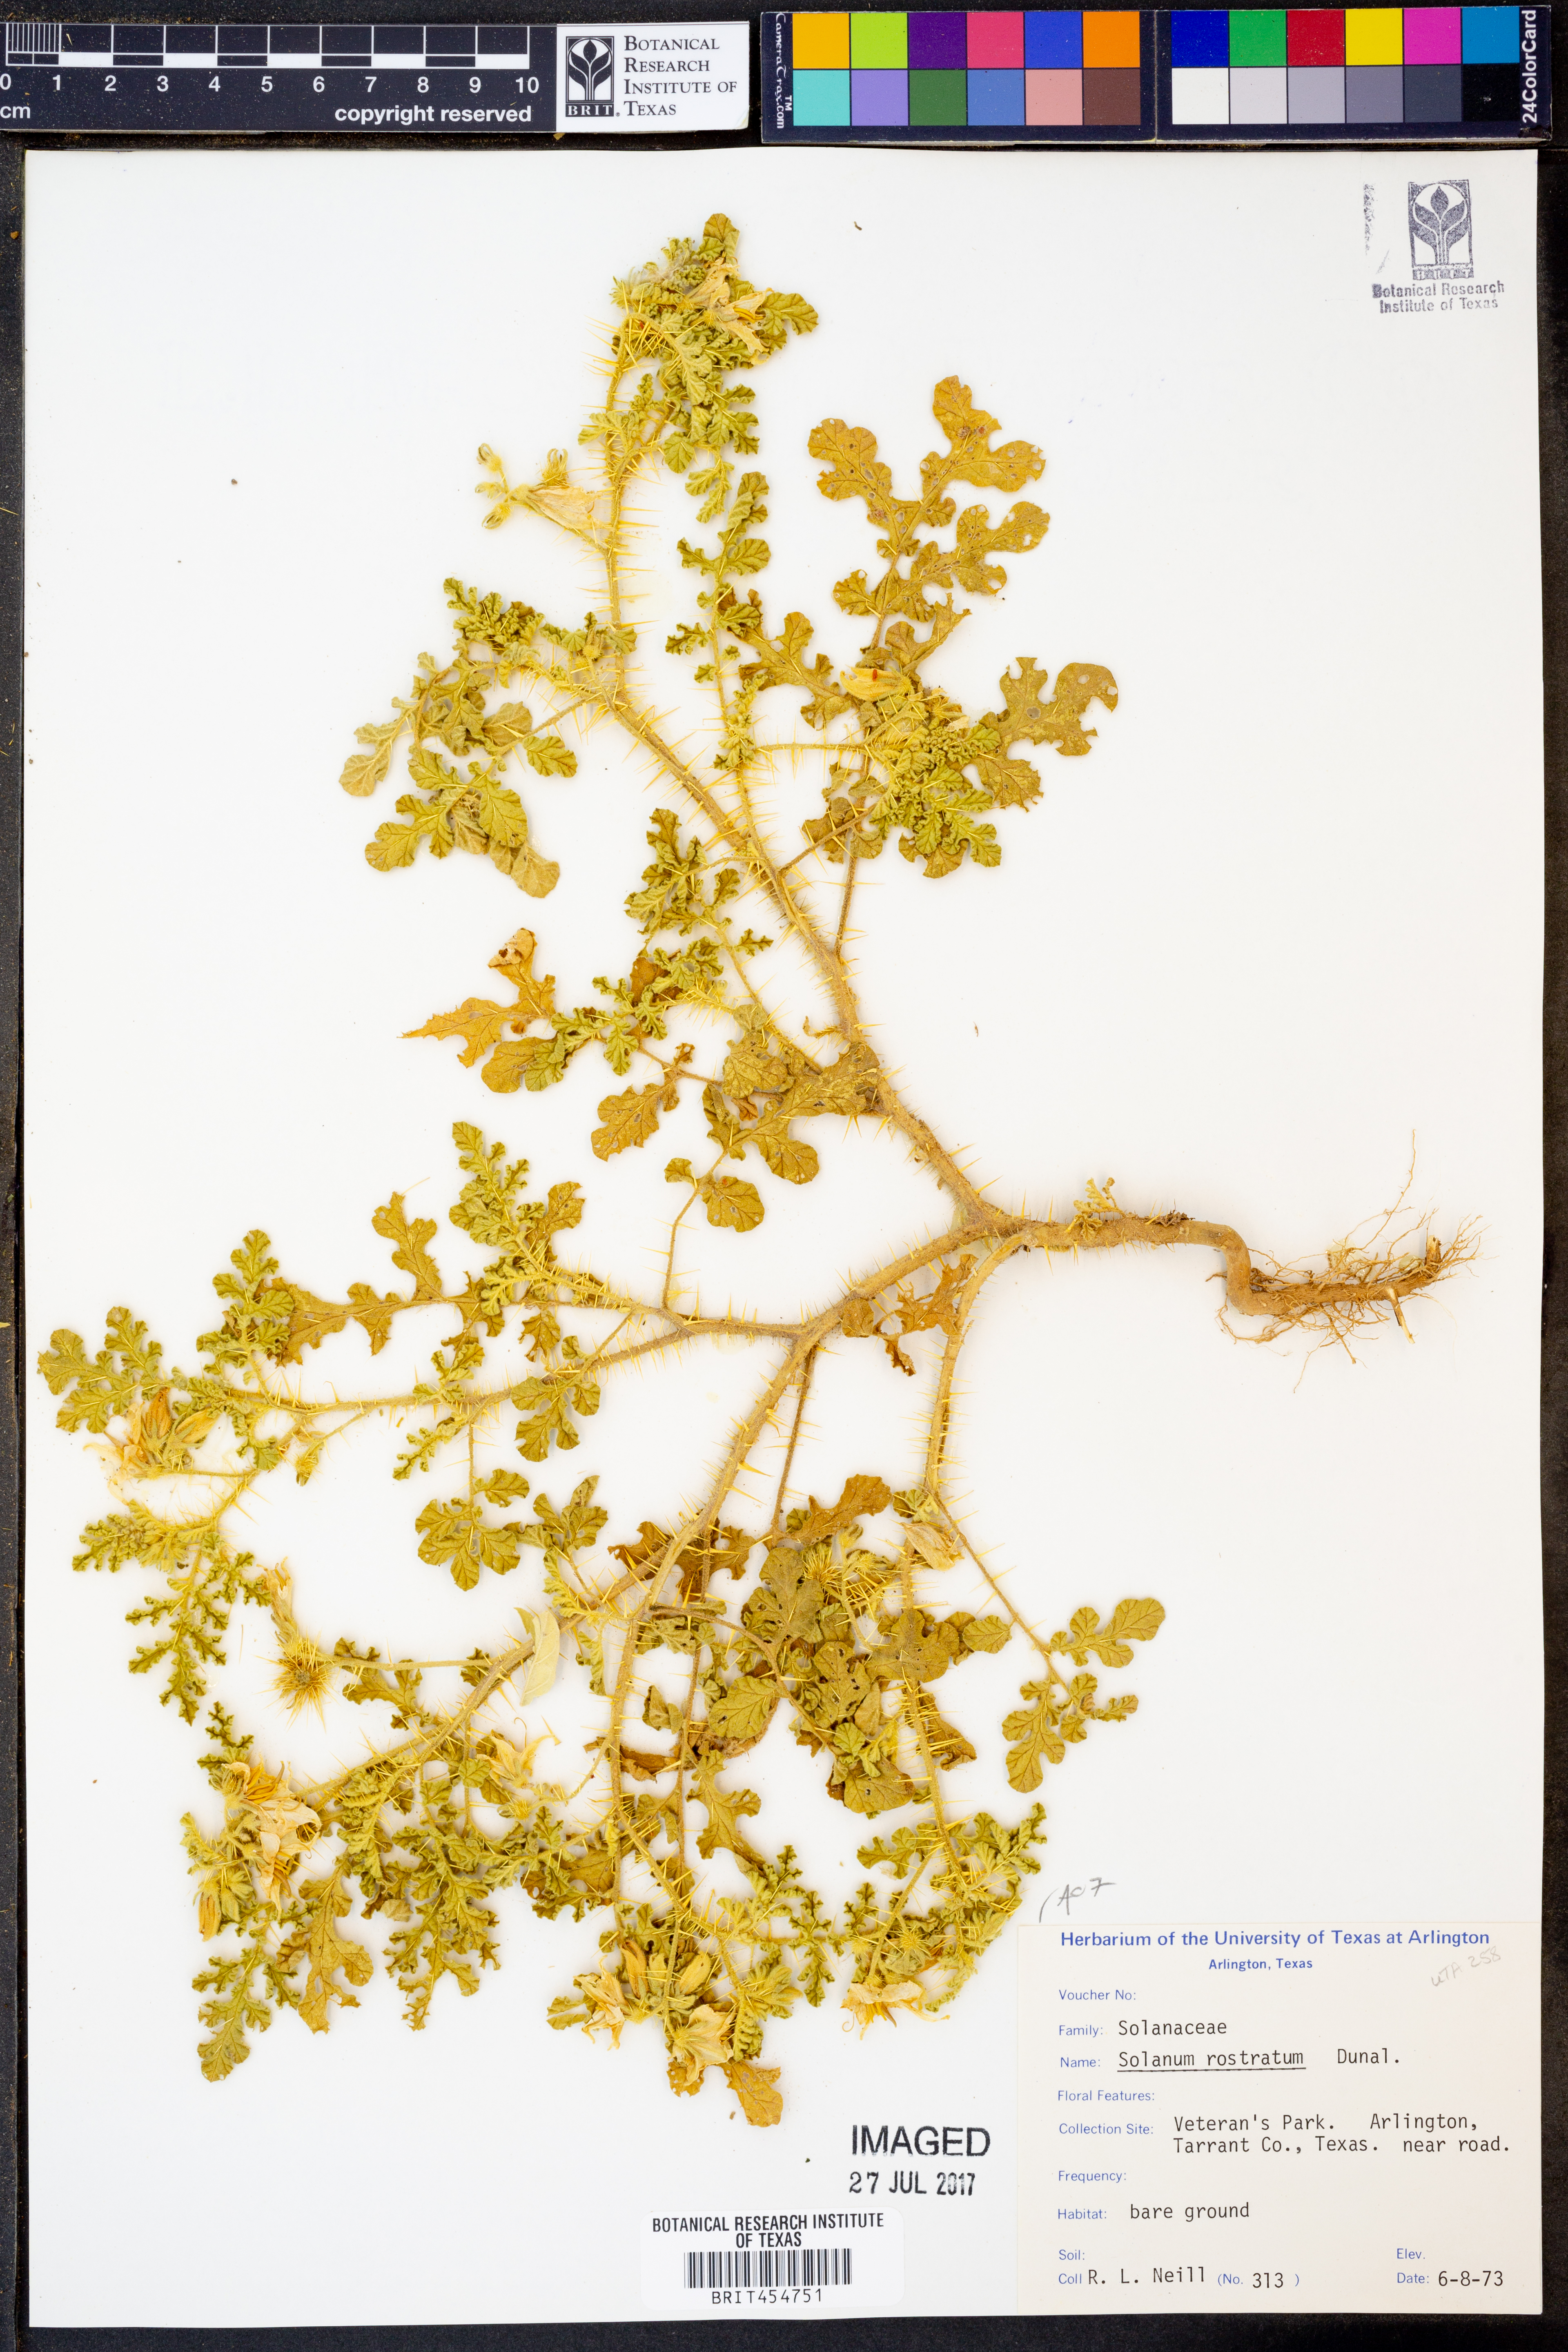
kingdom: Plantae
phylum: Tracheophyta
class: Magnoliopsida
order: Solanales
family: Solanaceae
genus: Solanum
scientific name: Solanum angustifolium
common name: Buffalobur nightshade
